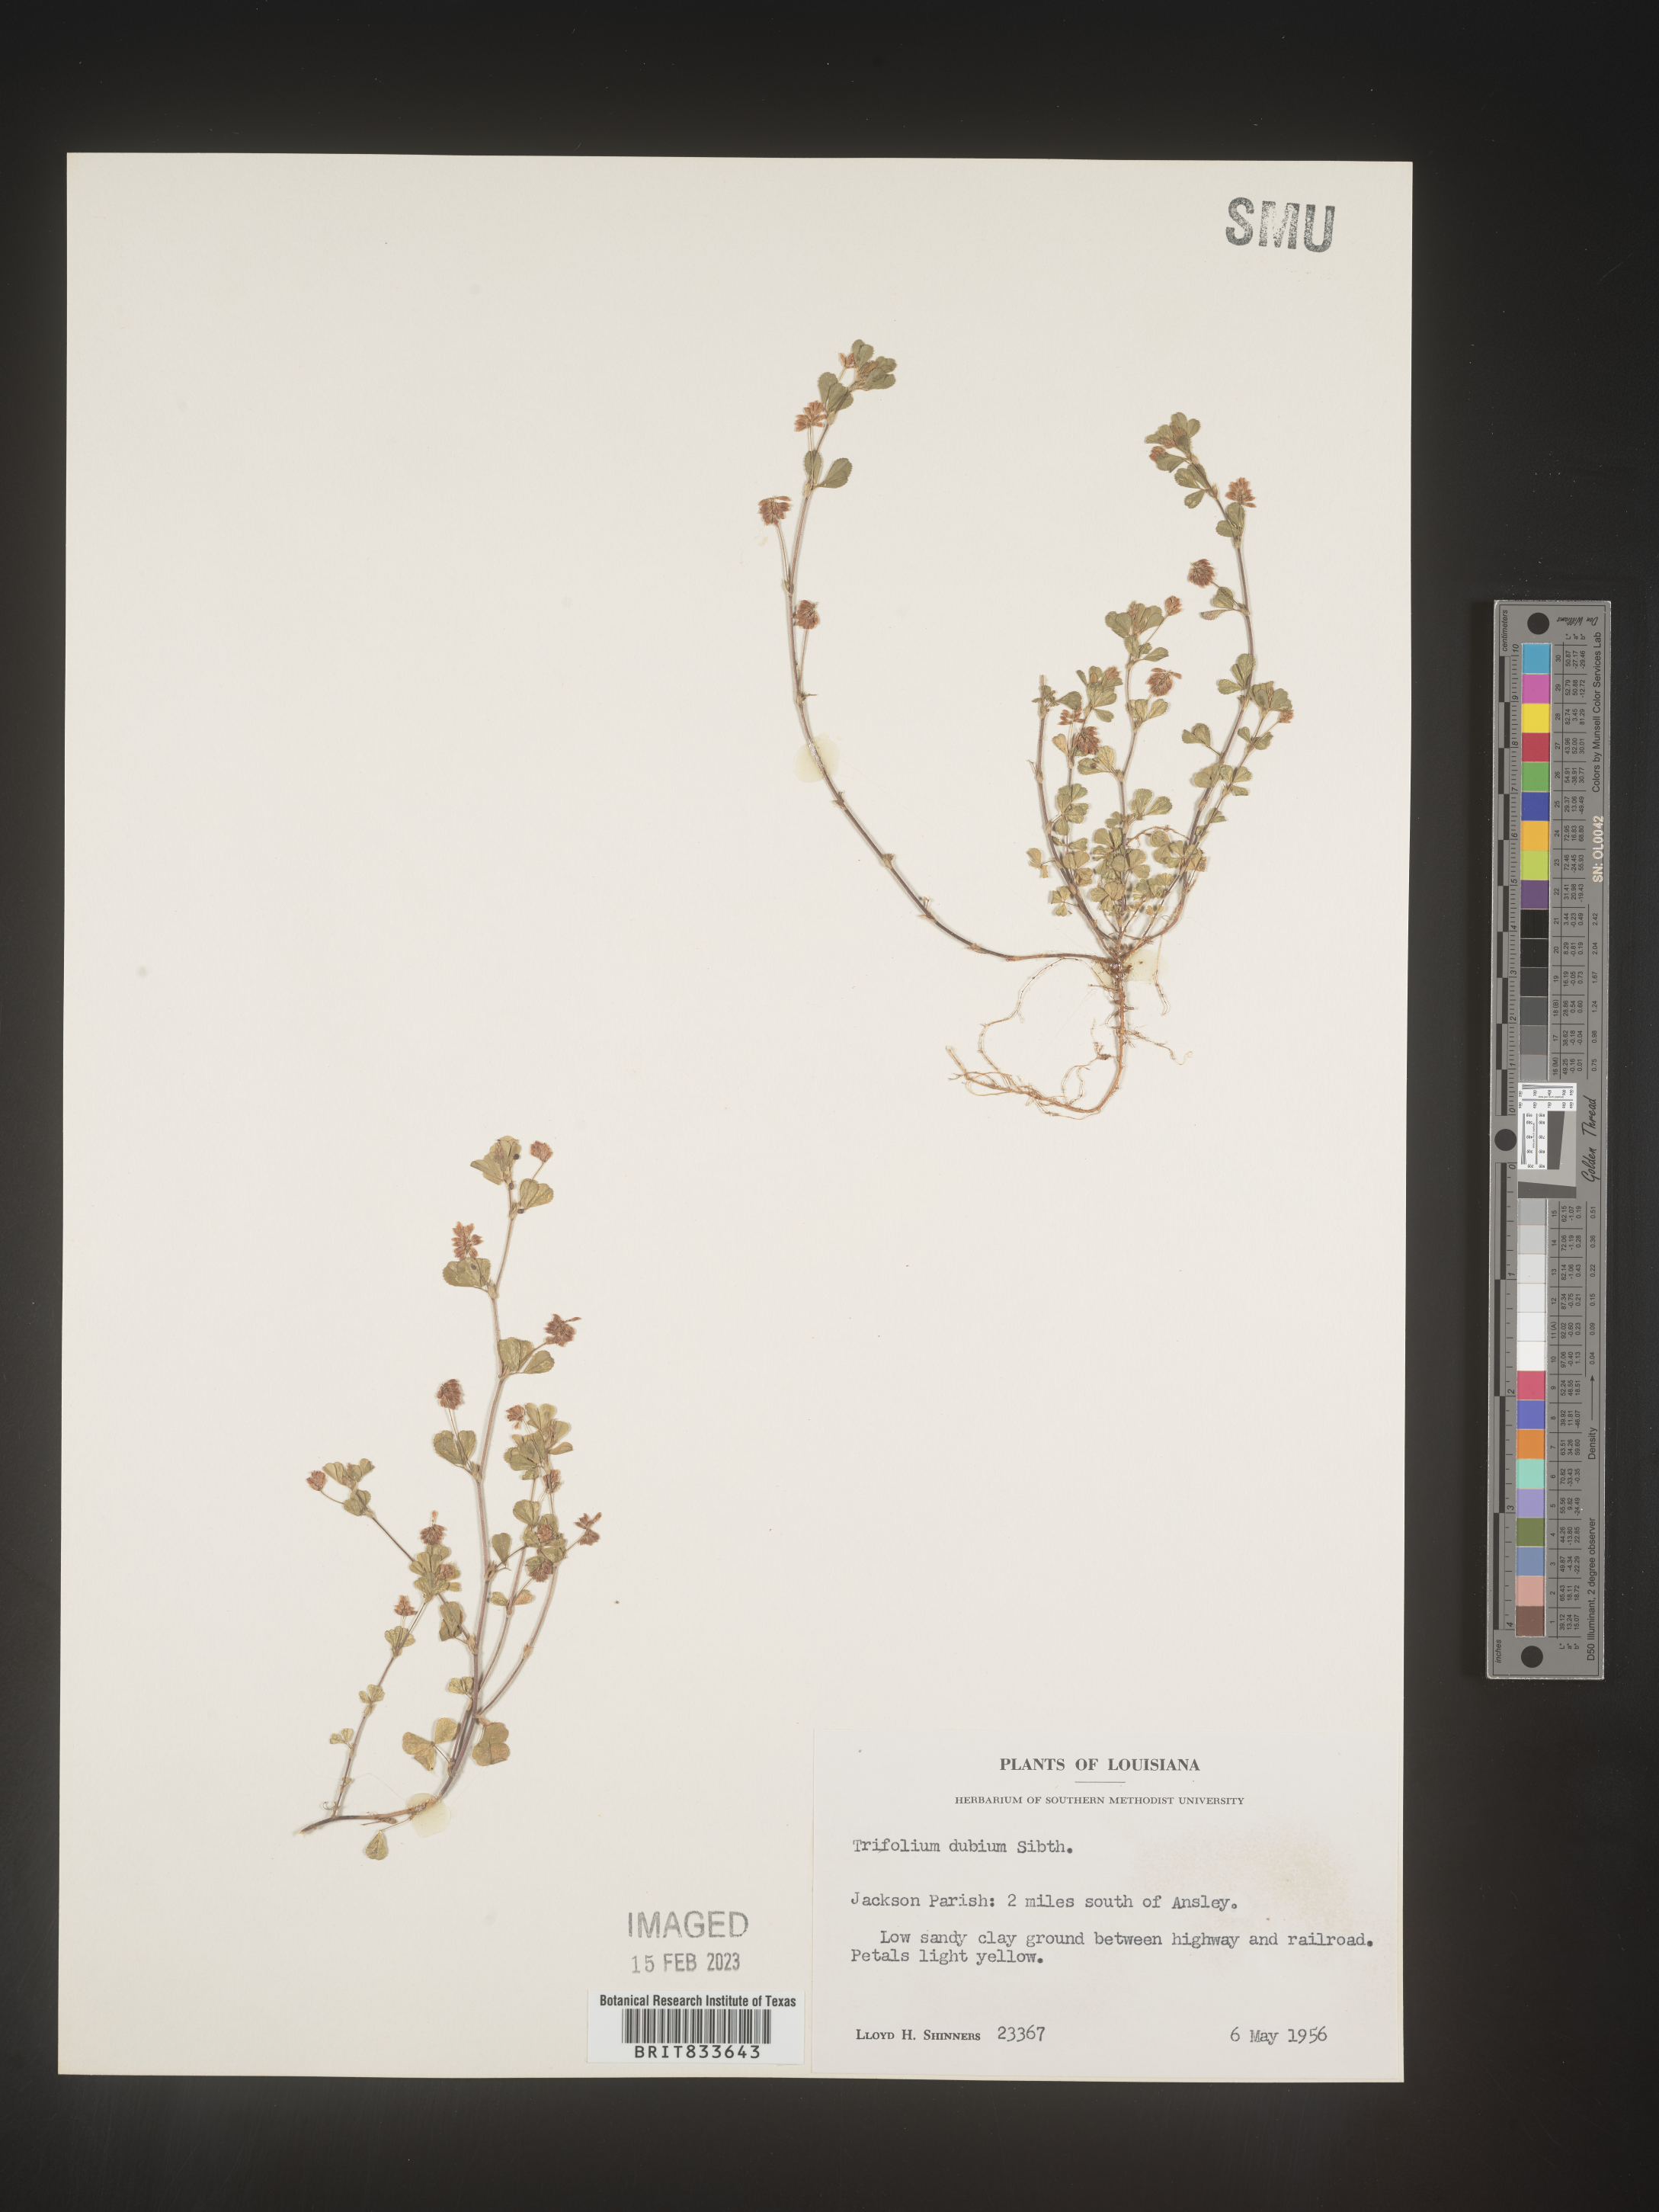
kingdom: Plantae
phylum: Tracheophyta
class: Magnoliopsida
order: Fabales
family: Fabaceae
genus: Trifolium
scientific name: Trifolium dubium
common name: Suckling clover
